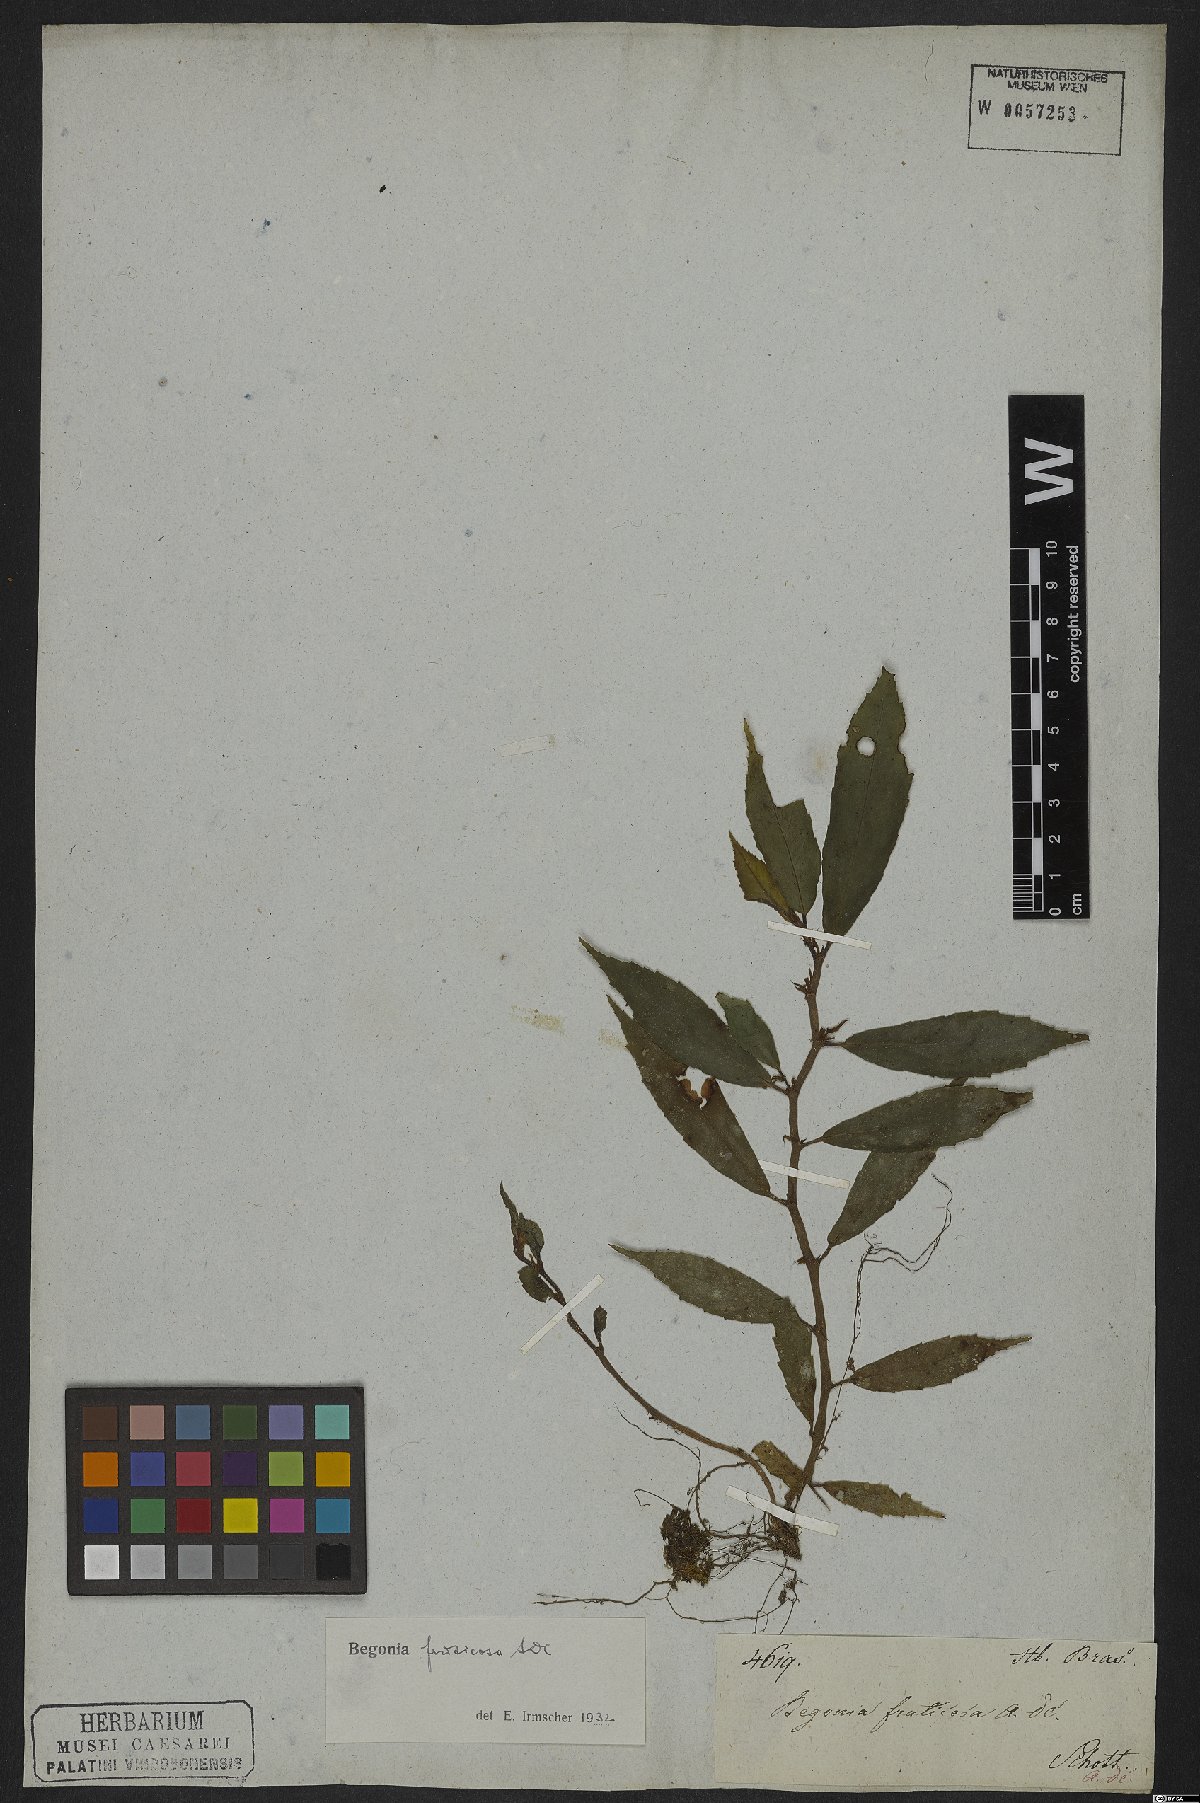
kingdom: Plantae
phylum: Tracheophyta
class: Magnoliopsida
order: Cucurbitales
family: Begoniaceae
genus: Begonia
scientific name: Begonia fruticosa
